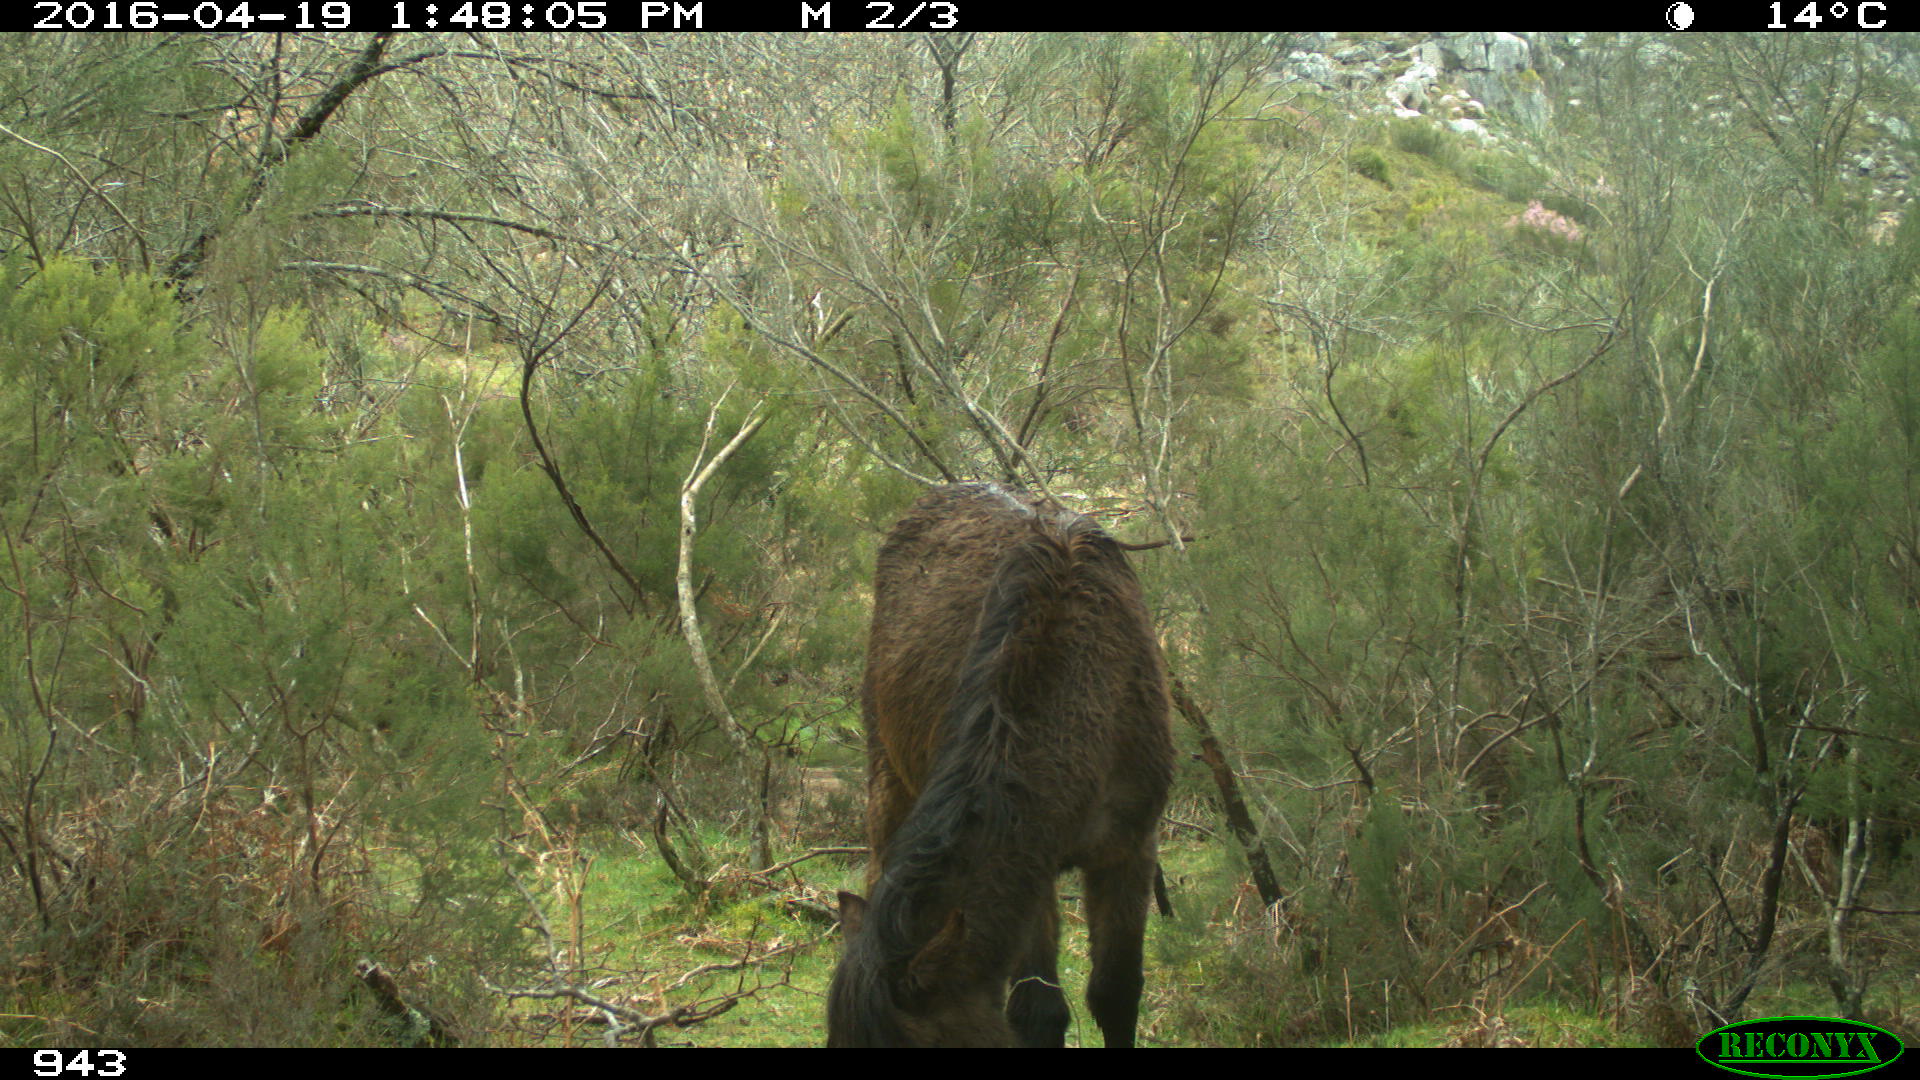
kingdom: Animalia
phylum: Chordata
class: Mammalia
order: Perissodactyla
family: Equidae
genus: Equus
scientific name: Equus caballus
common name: Horse
